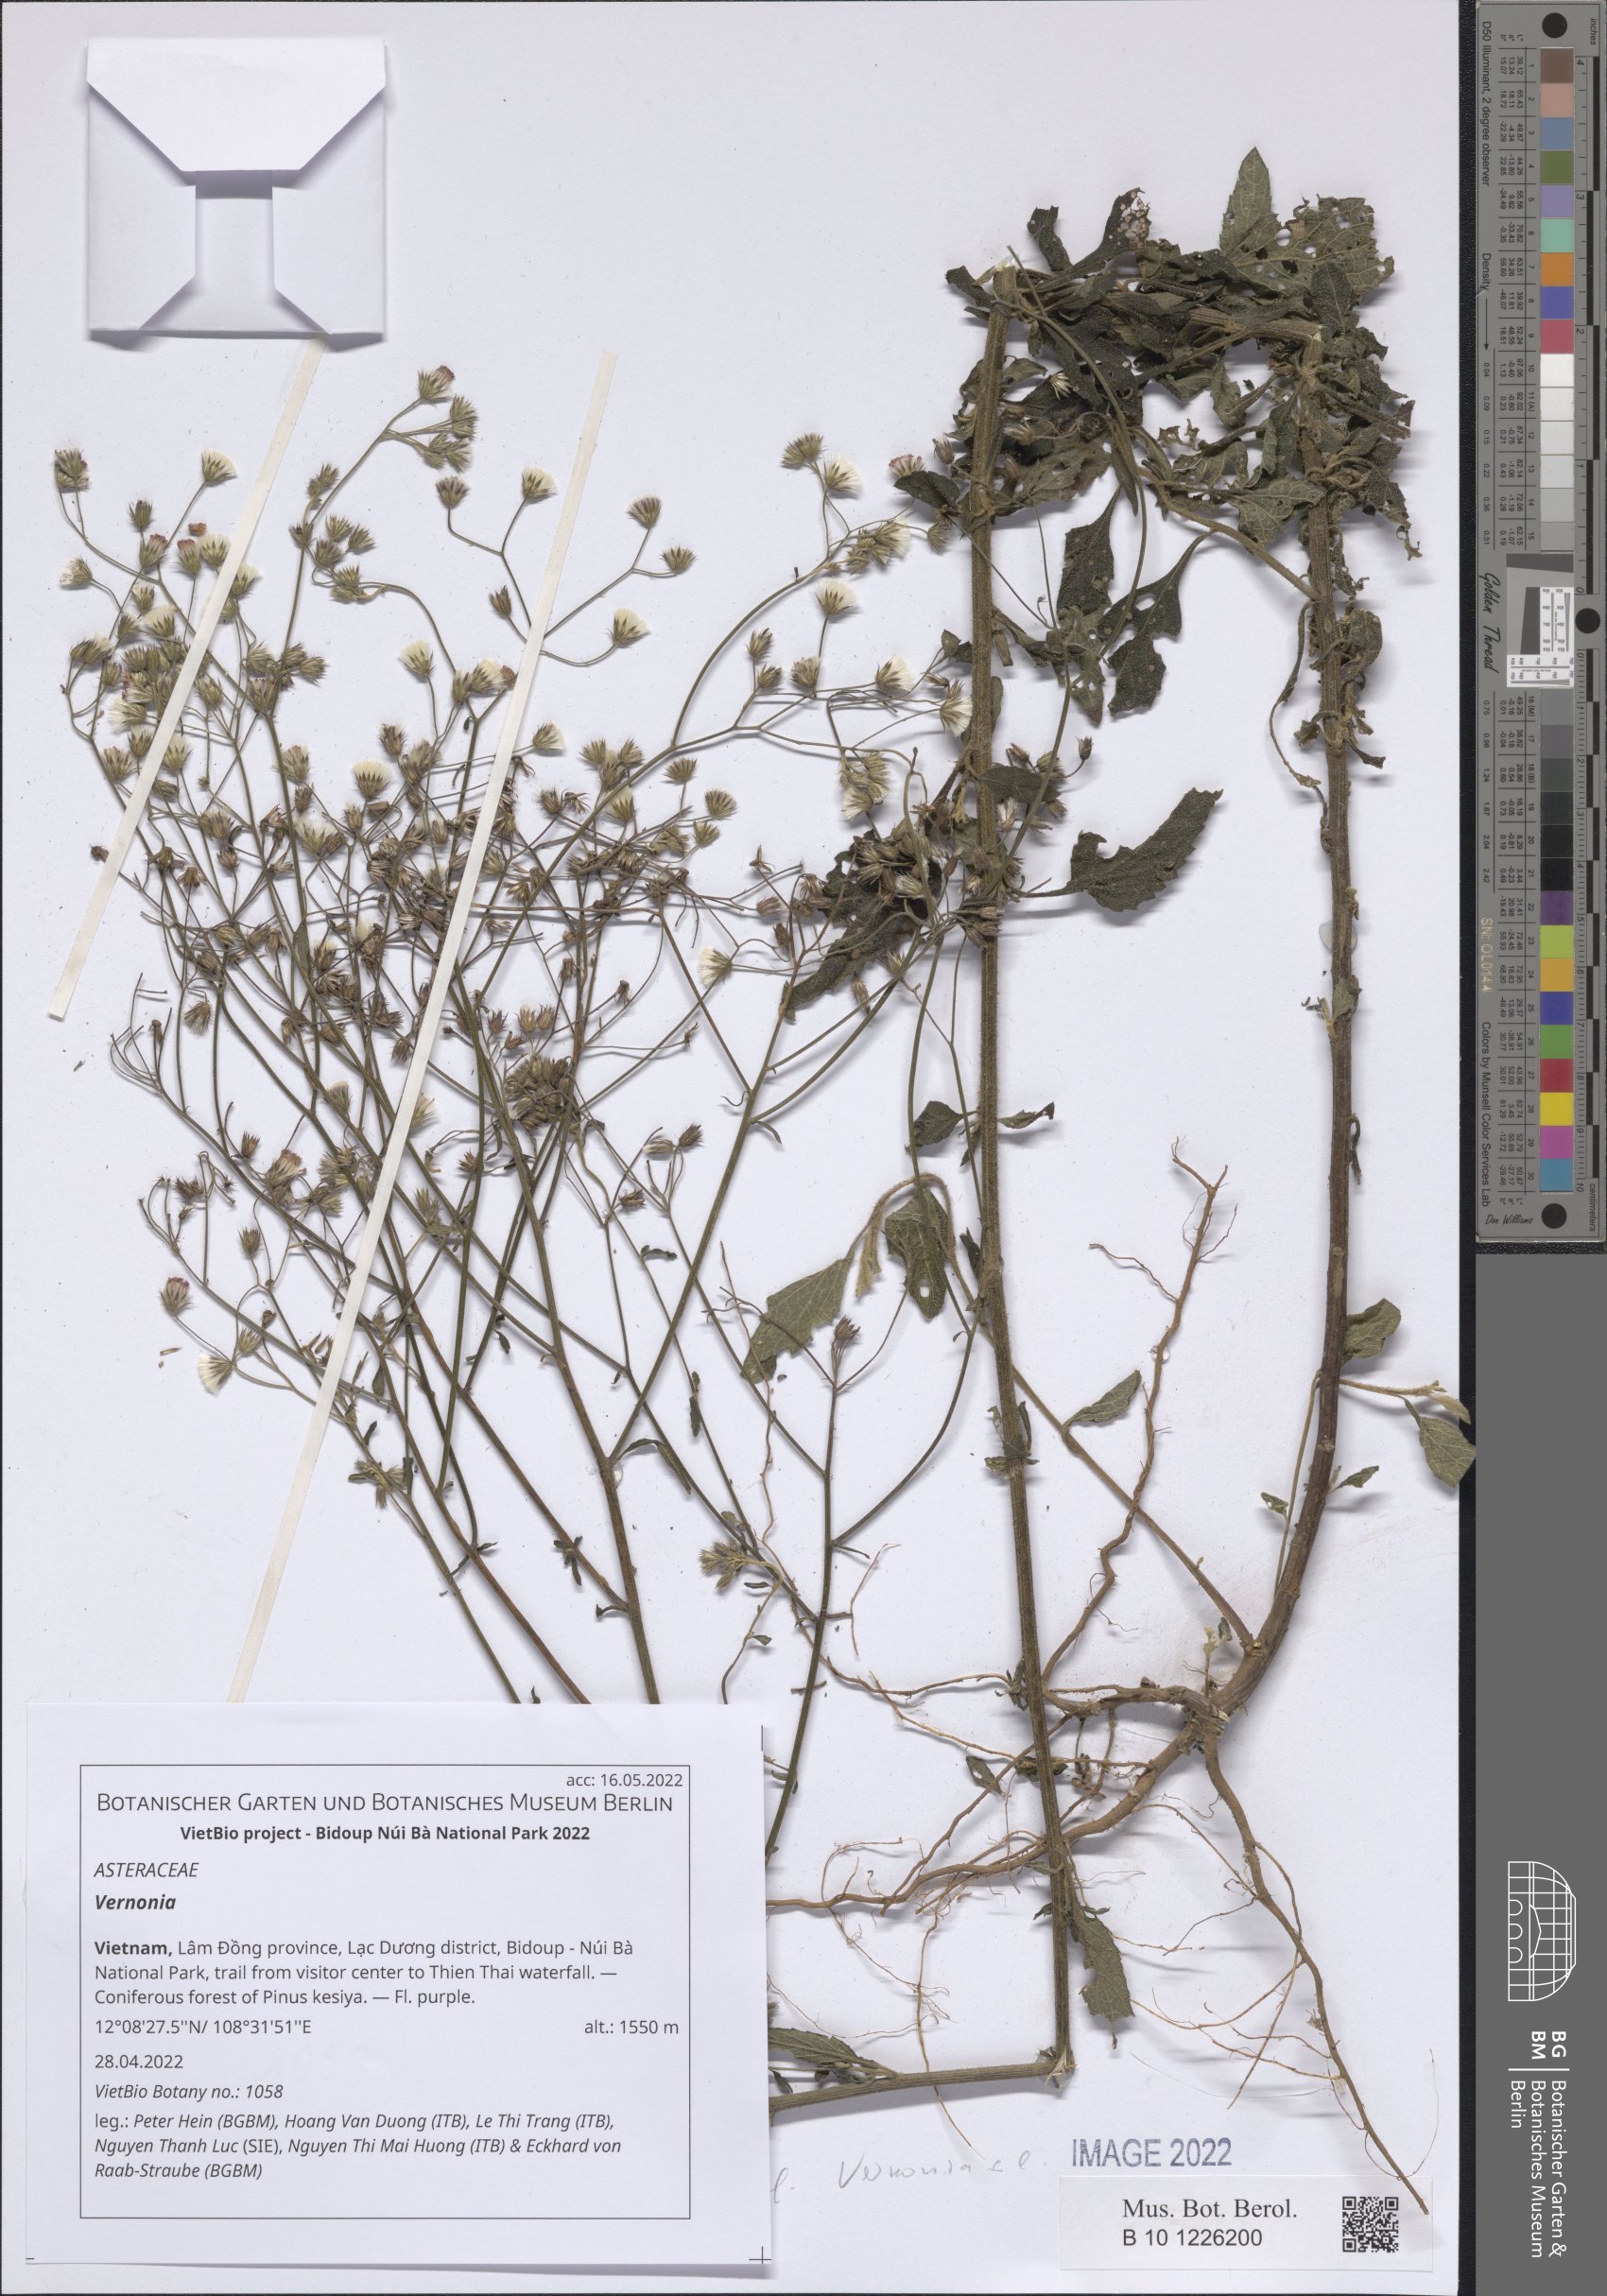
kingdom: Plantae
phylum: Tracheophyta
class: Magnoliopsida
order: Asterales
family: Asteraceae
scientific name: Asteraceae
